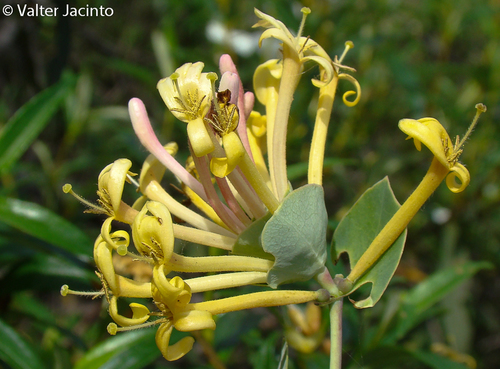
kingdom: Plantae
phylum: Tracheophyta
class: Magnoliopsida
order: Dipsacales
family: Caprifoliaceae
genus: Lonicera
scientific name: Lonicera implexa
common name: Minorca honeysuckle
